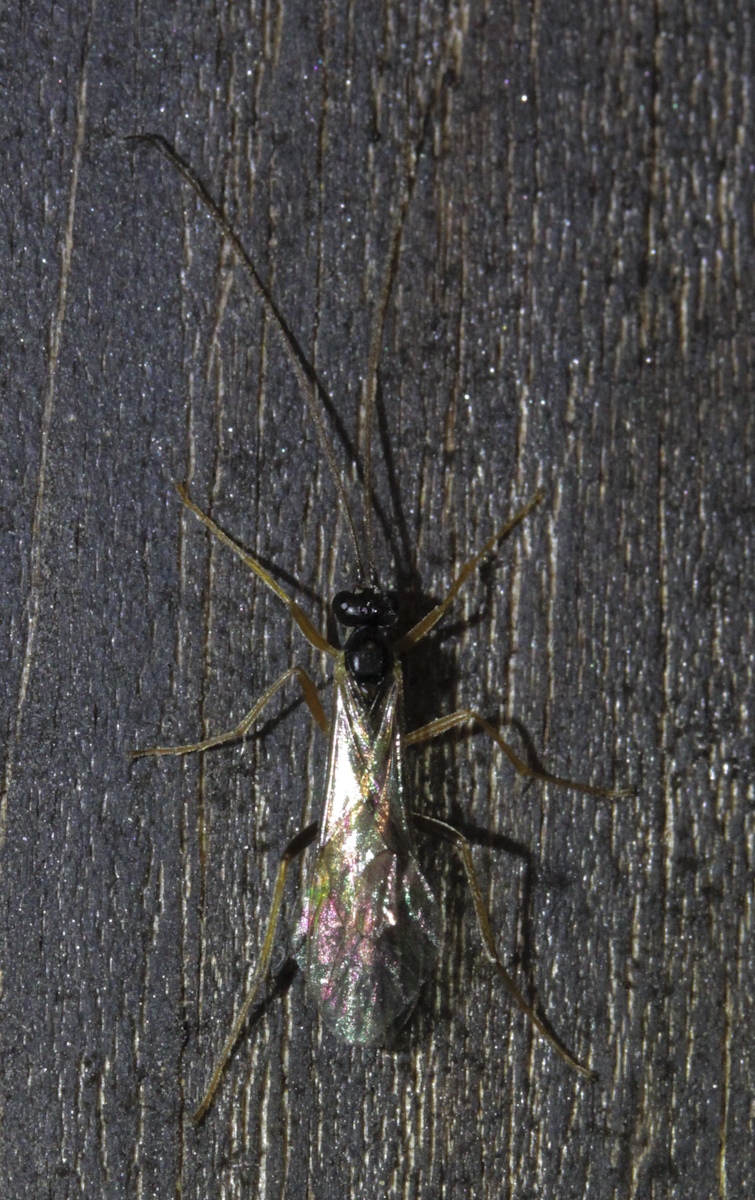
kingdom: Animalia
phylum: Arthropoda
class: Insecta
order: Hymenoptera
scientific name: Hymenoptera
